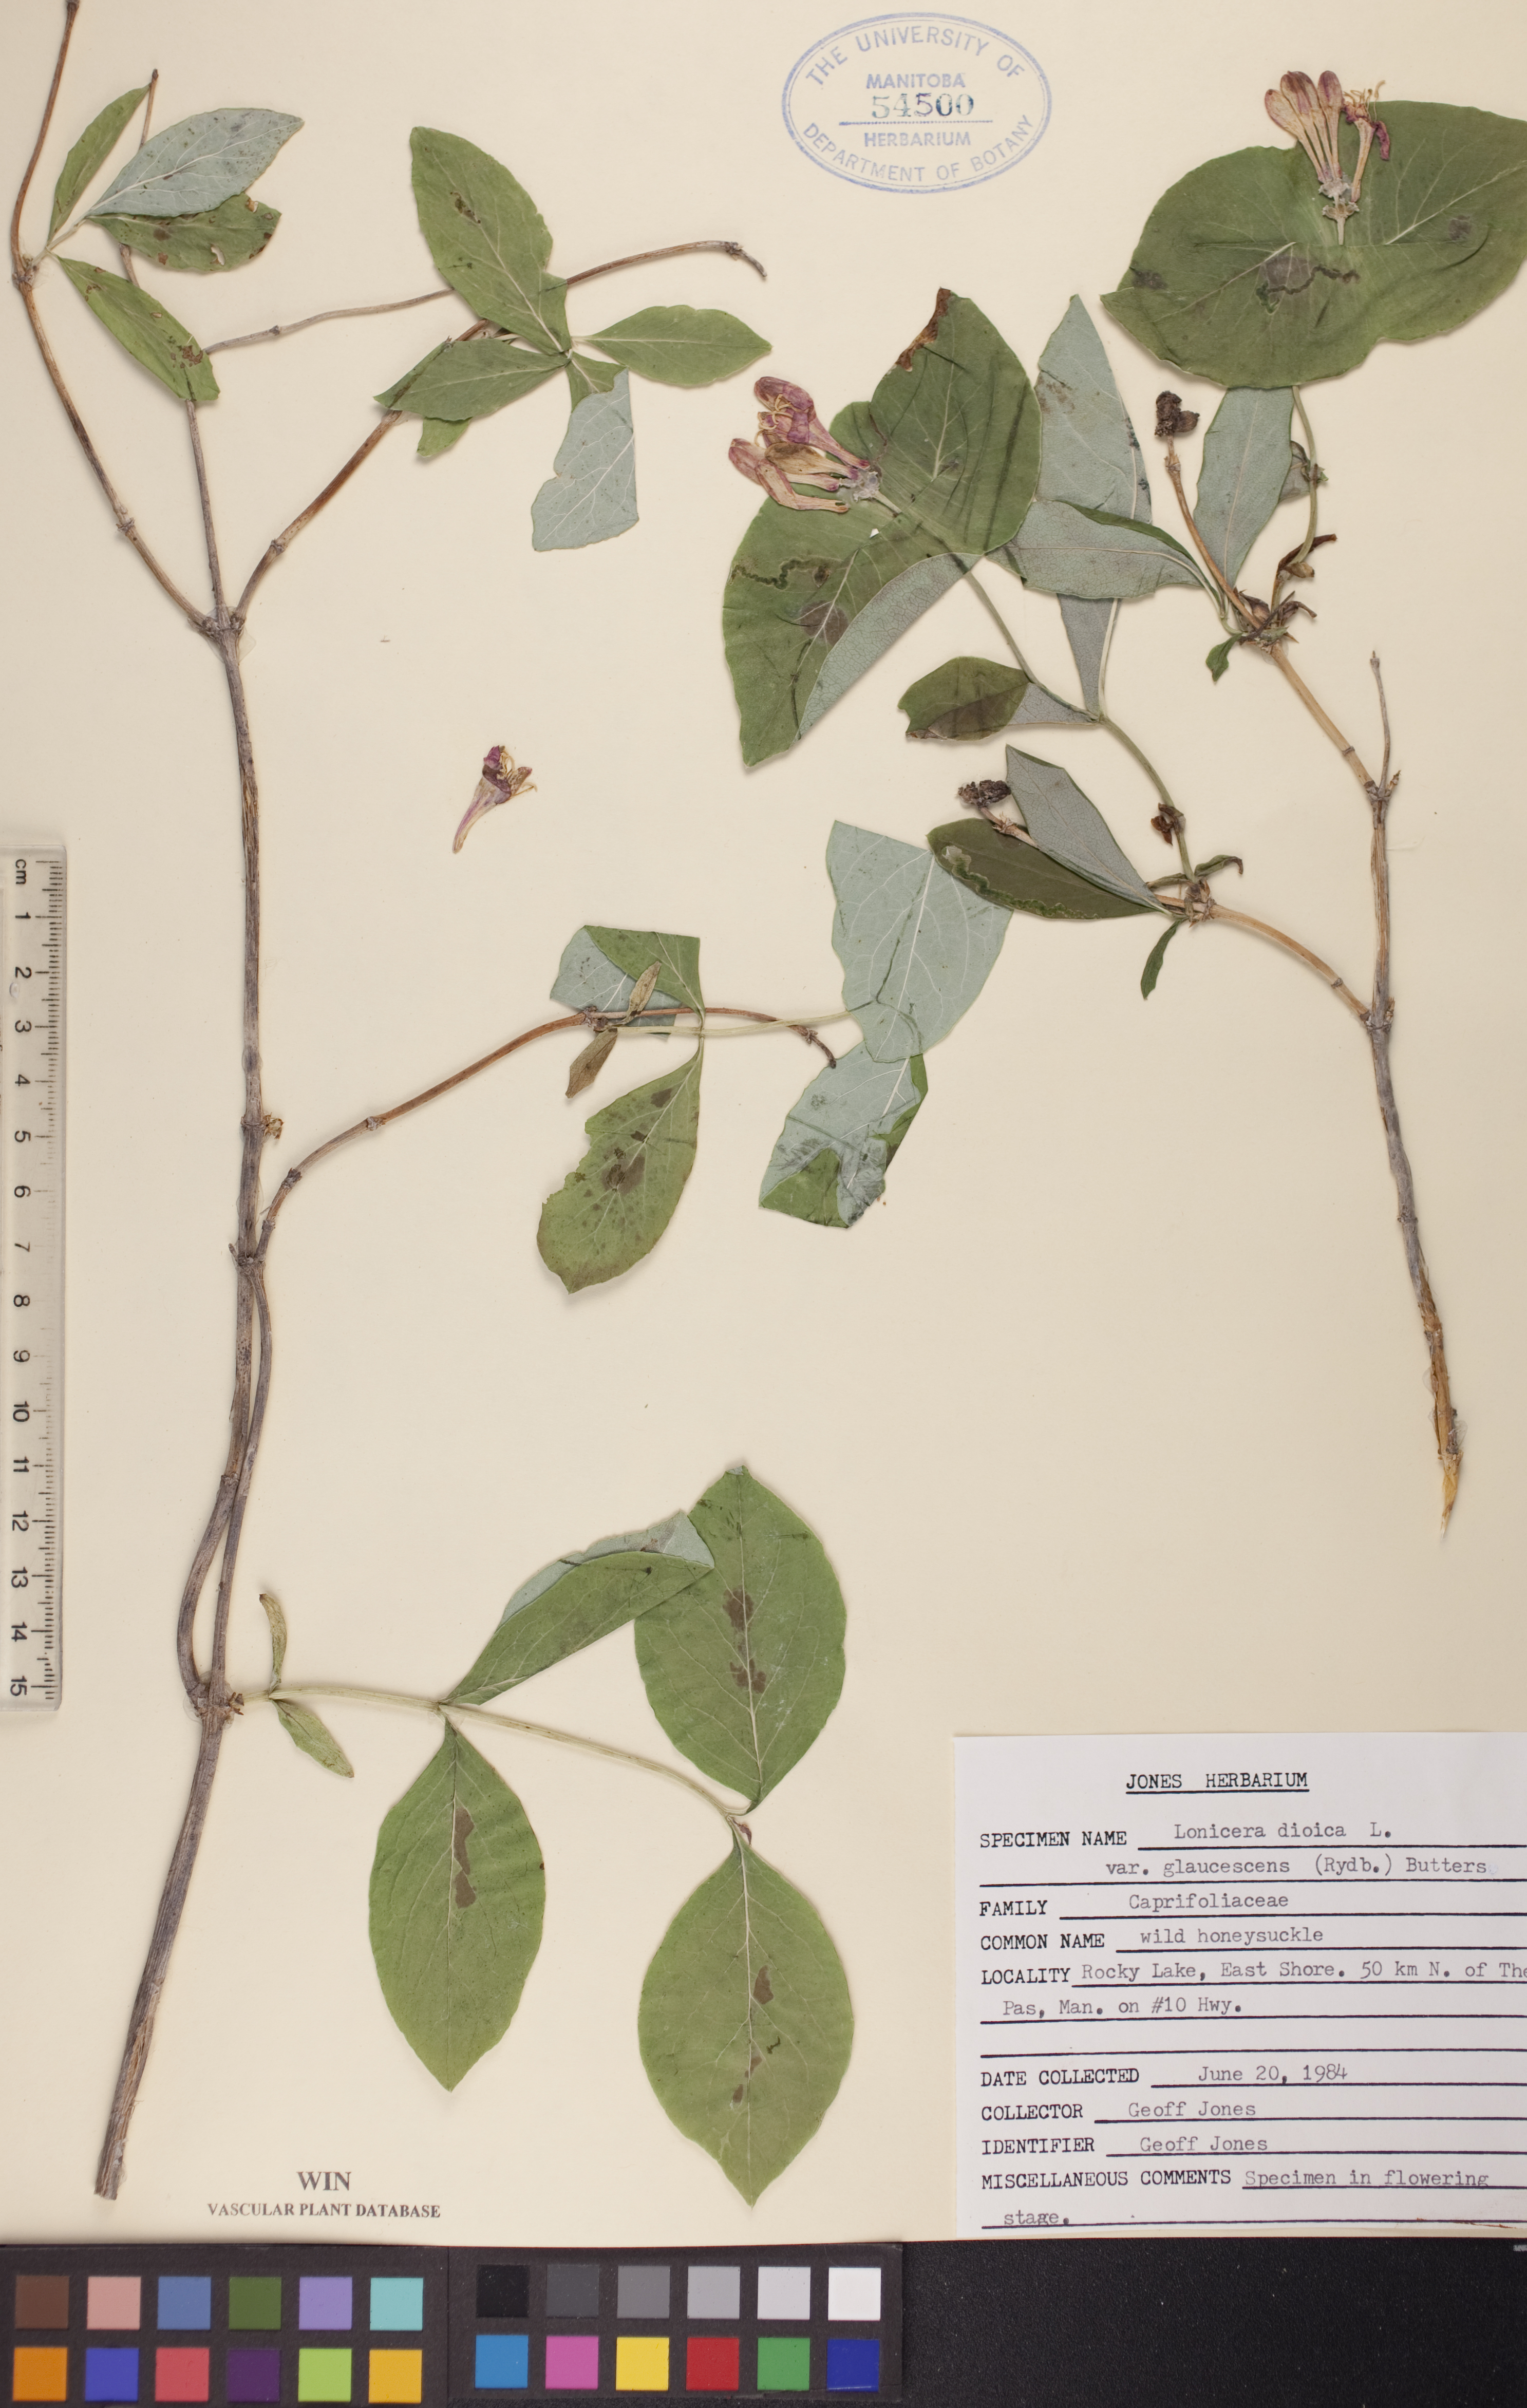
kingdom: Plantae
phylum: Tracheophyta
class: Magnoliopsida
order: Dipsacales
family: Caprifoliaceae
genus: Lonicera
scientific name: Lonicera dioica
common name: Limber honeysuckle
